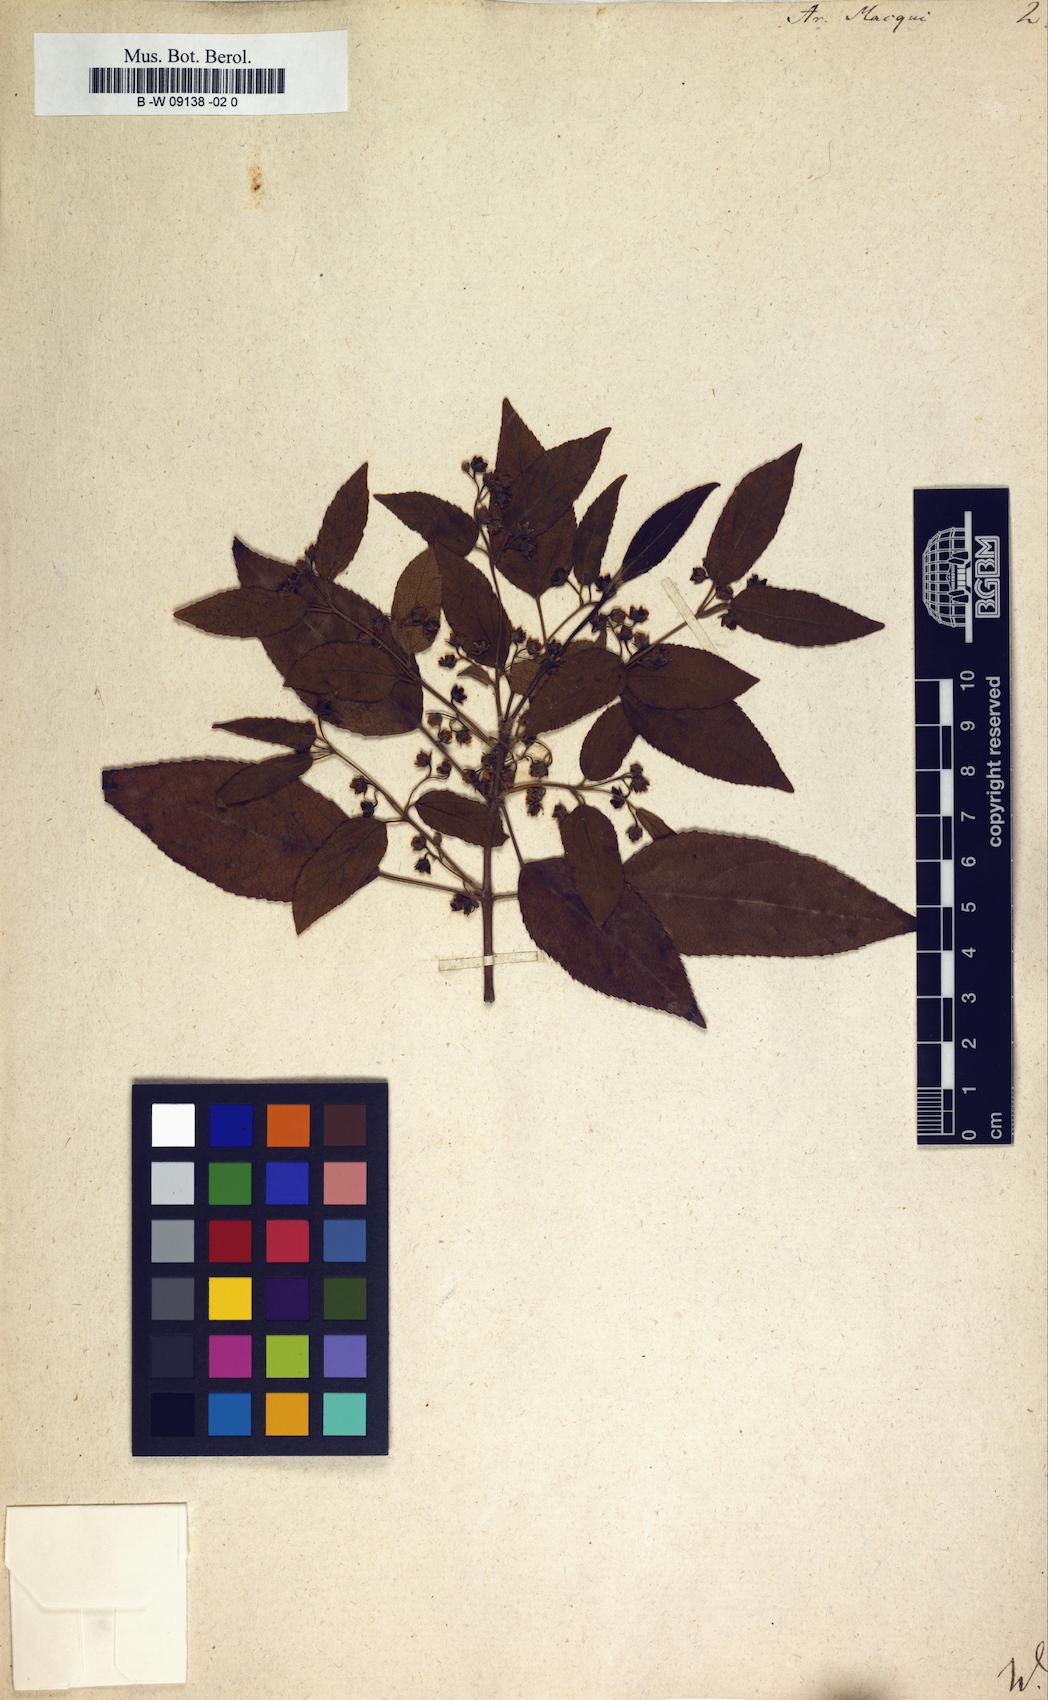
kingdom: Plantae
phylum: Tracheophyta
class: Magnoliopsida
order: Oxalidales
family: Elaeocarpaceae
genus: Aristotelia
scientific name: Aristotelia chilensis
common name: Maquei
